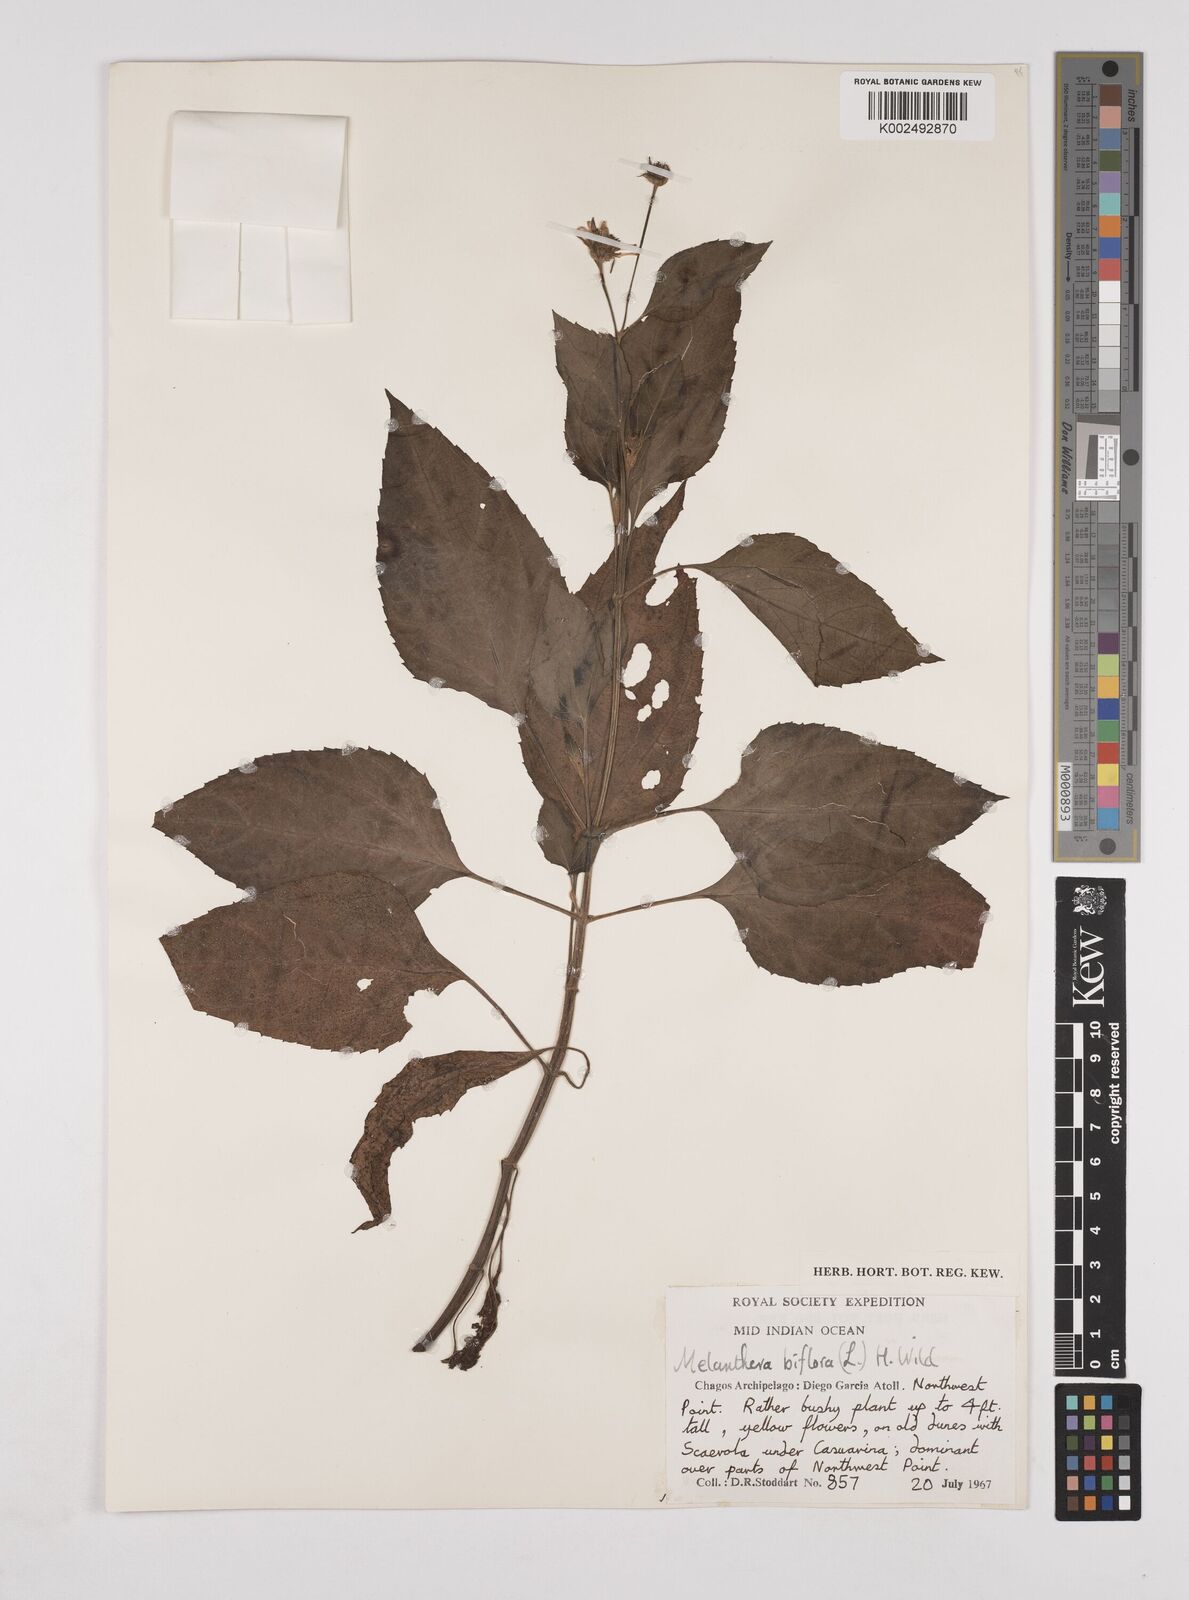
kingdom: Plantae
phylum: Tracheophyta
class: Magnoliopsida
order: Asterales
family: Asteraceae
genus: Wollastonia
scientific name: Wollastonia biflora
